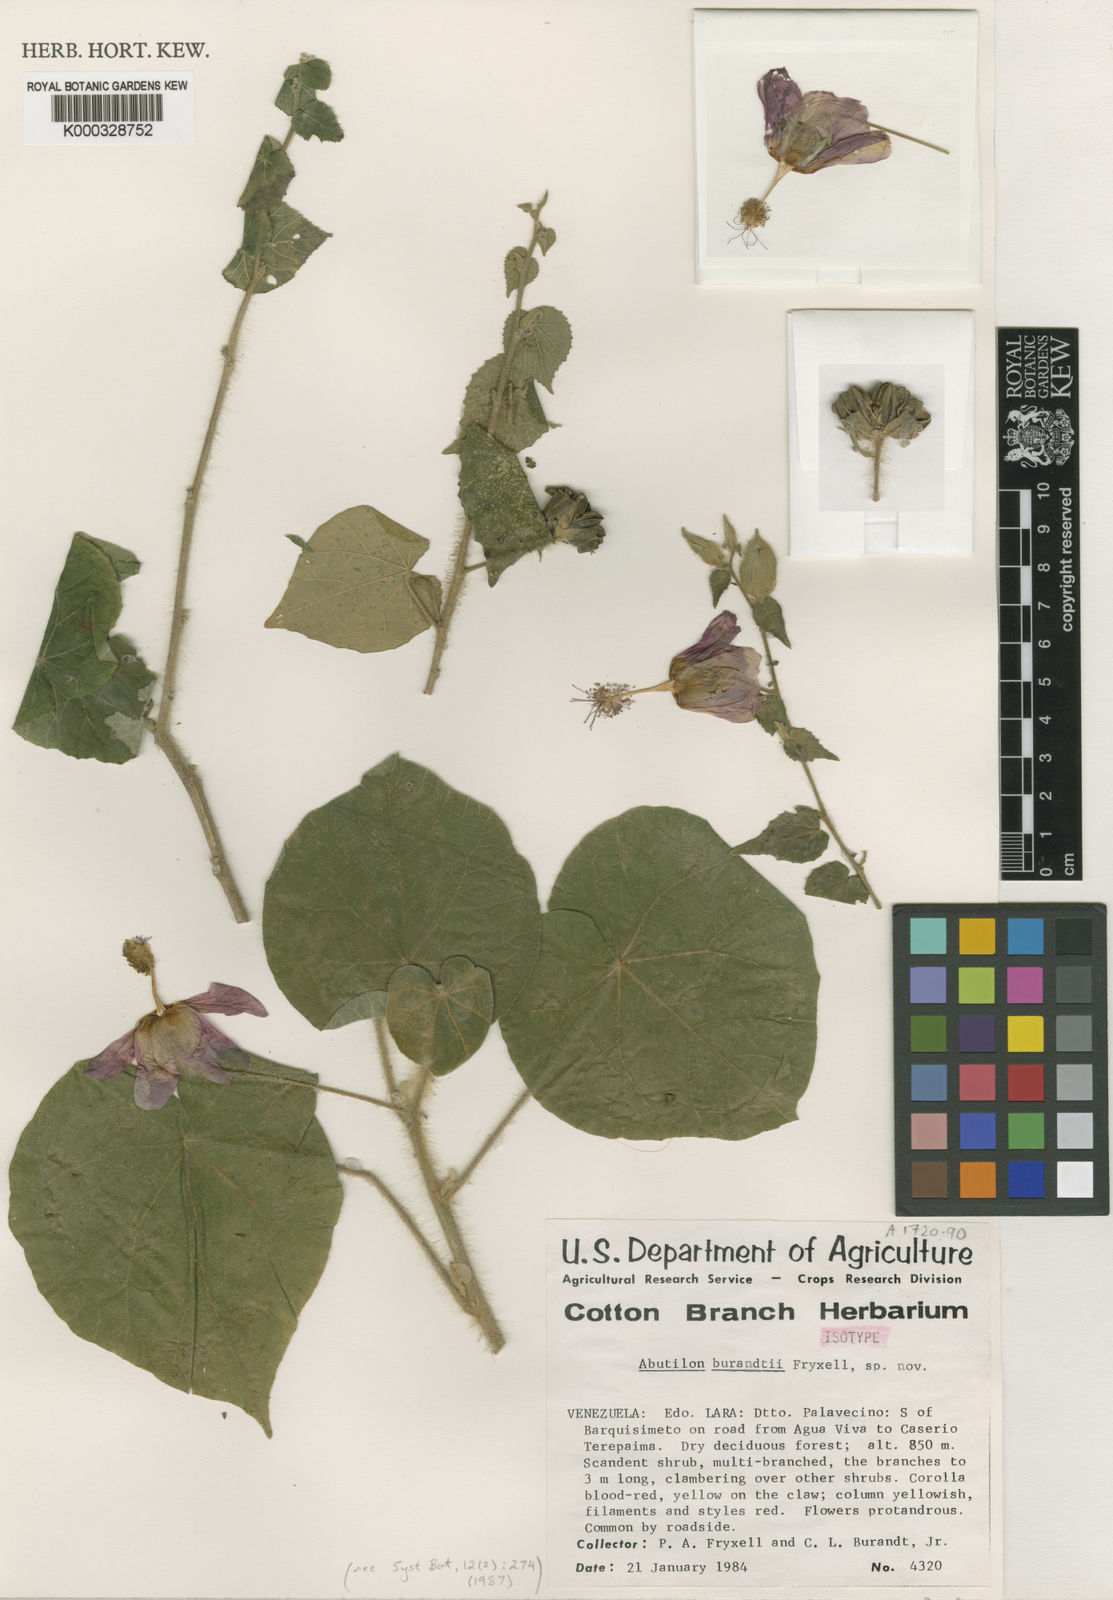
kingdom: Plantae
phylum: Tracheophyta
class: Magnoliopsida
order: Malvales
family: Malvaceae
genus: Abutilon
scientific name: Abutilon burandtii
